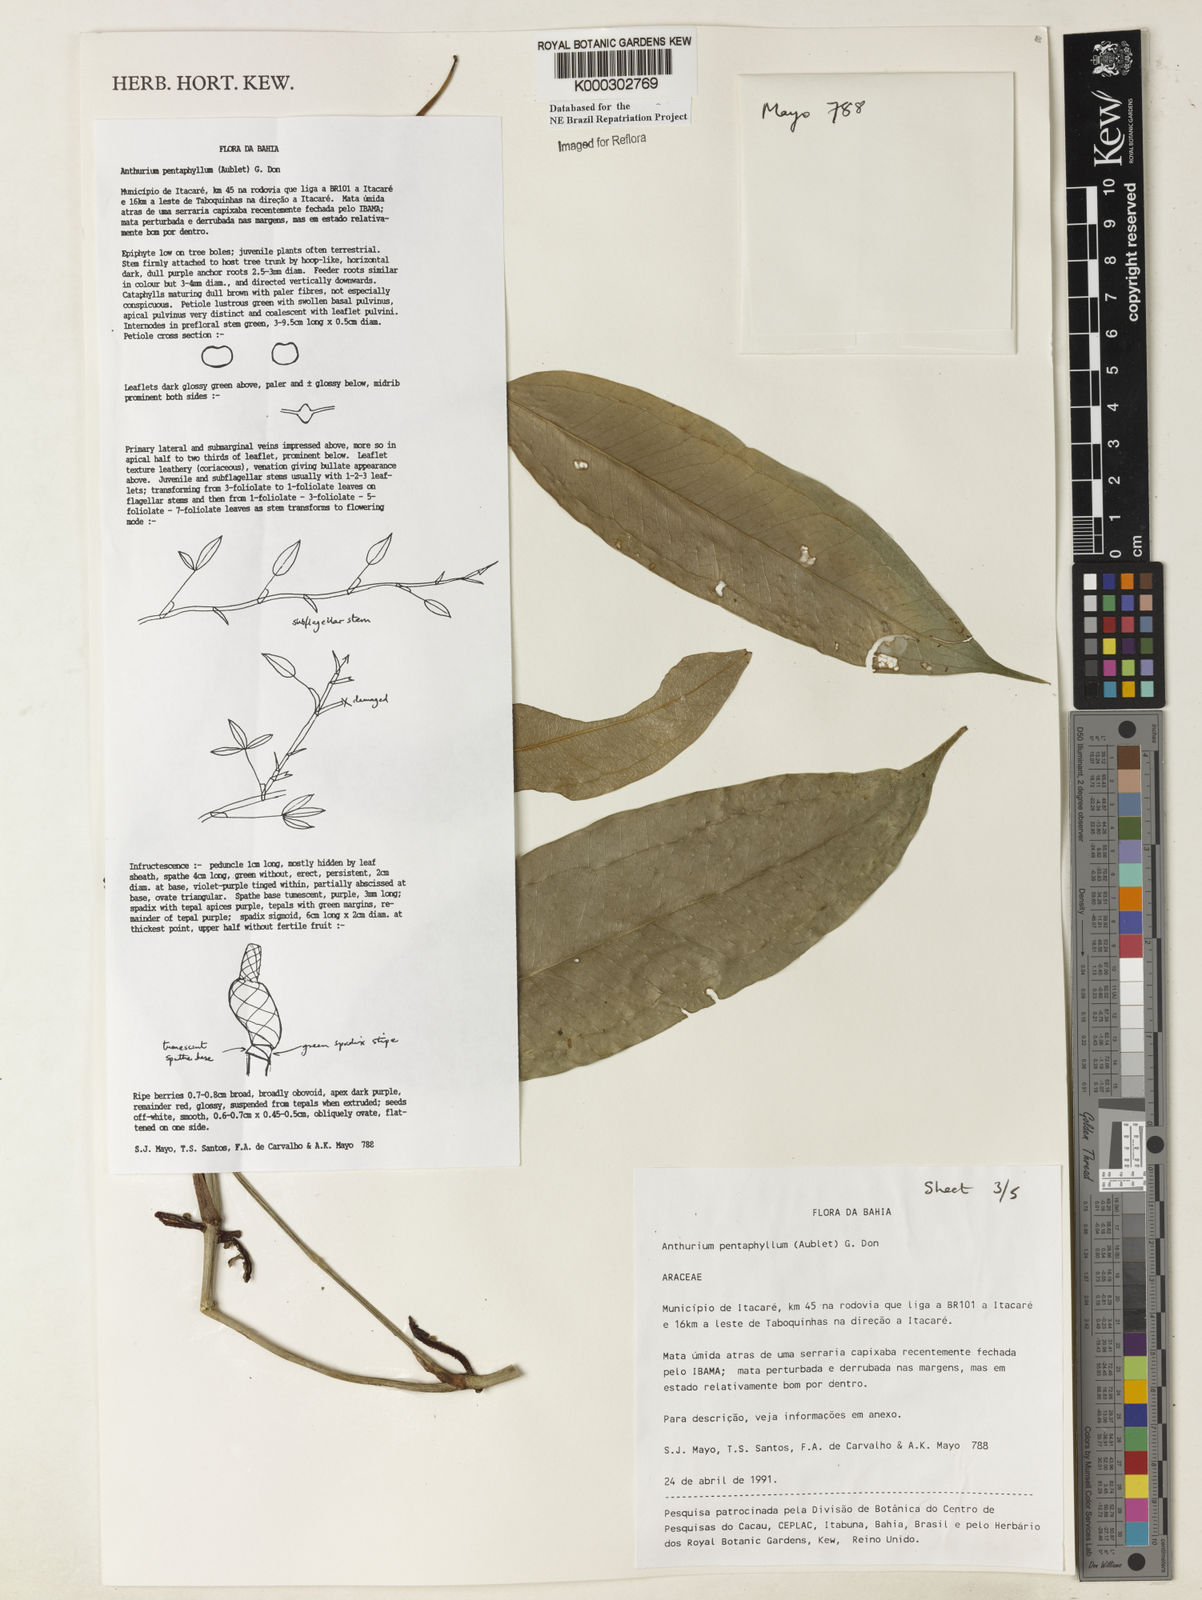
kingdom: Plantae
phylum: Tracheophyta
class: Liliopsida
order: Alismatales
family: Araceae
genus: Anthurium
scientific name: Anthurium pentaphyllum
